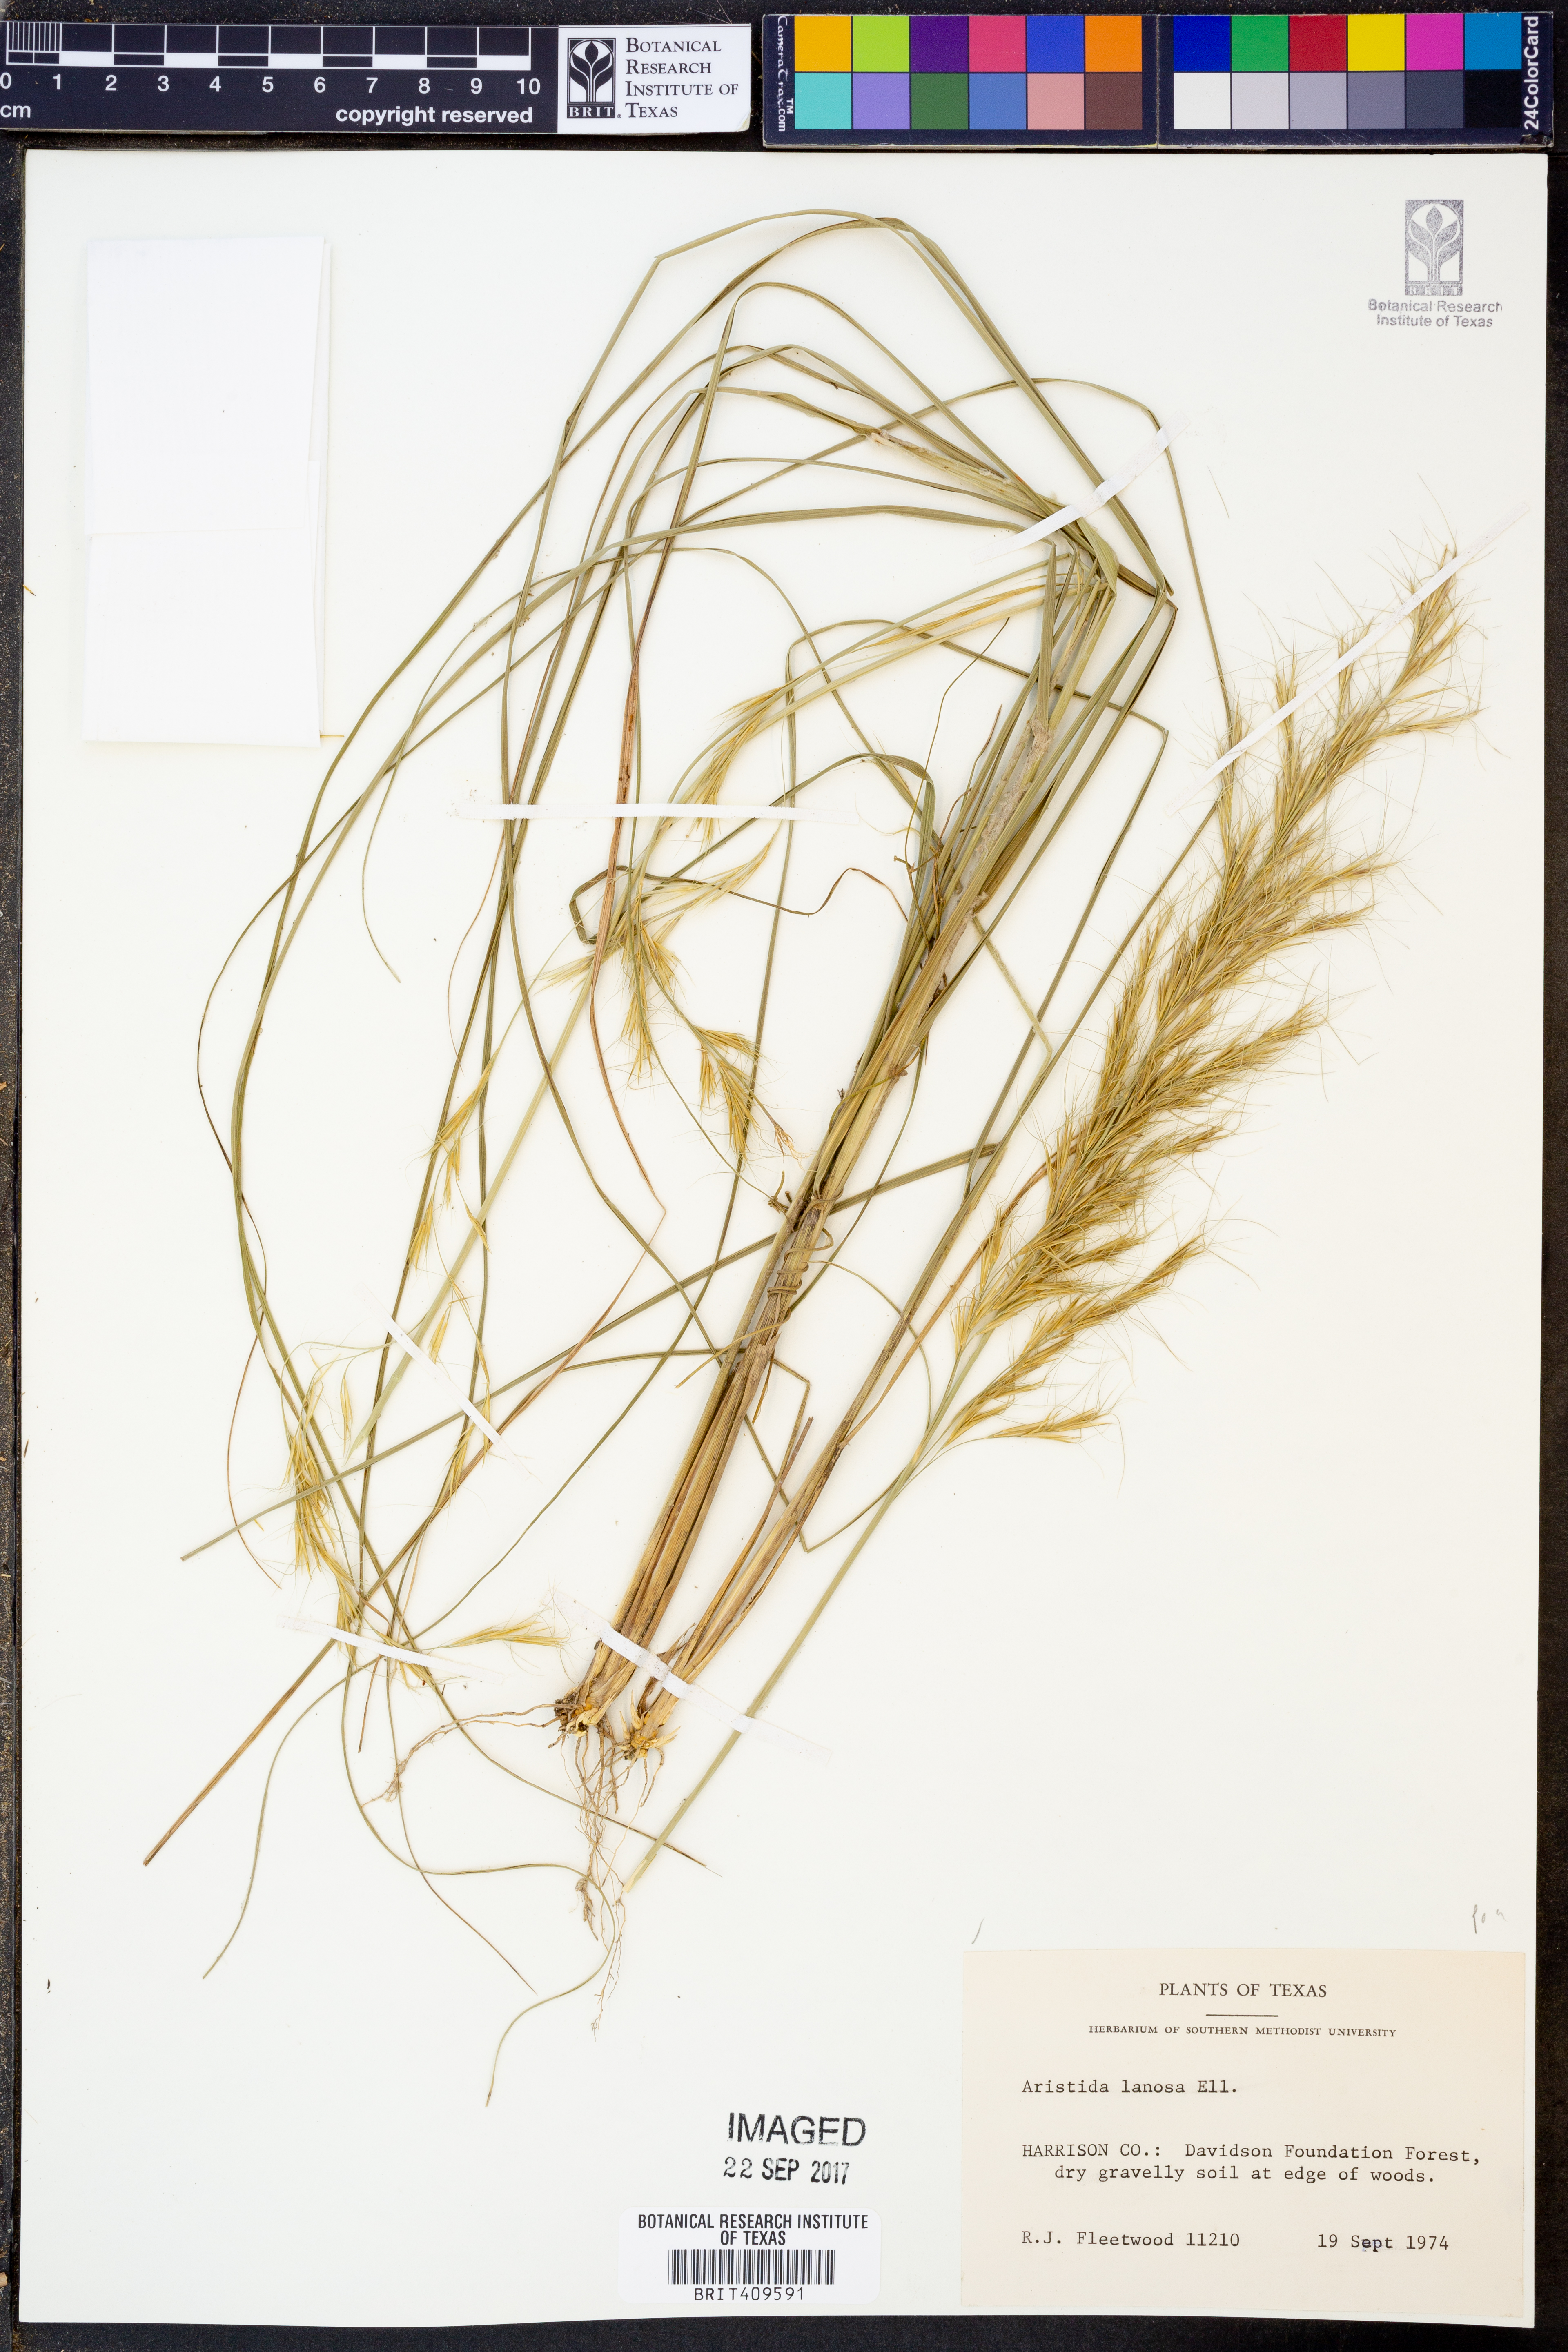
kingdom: Plantae
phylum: Tracheophyta
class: Liliopsida
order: Poales
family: Poaceae
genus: Aristida
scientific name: Aristida lanosa
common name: Woolly three-awn
